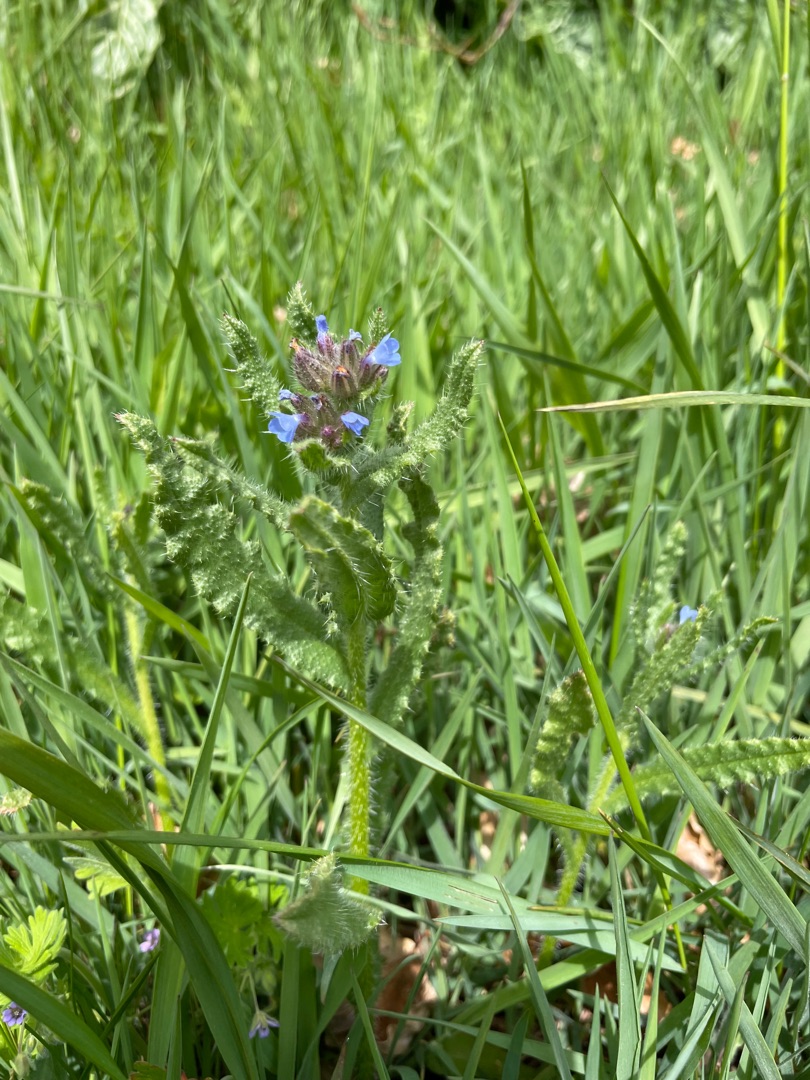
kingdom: Plantae
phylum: Tracheophyta
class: Magnoliopsida
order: Boraginales
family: Boraginaceae
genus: Lycopsis
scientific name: Lycopsis arvensis
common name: Krumhals
